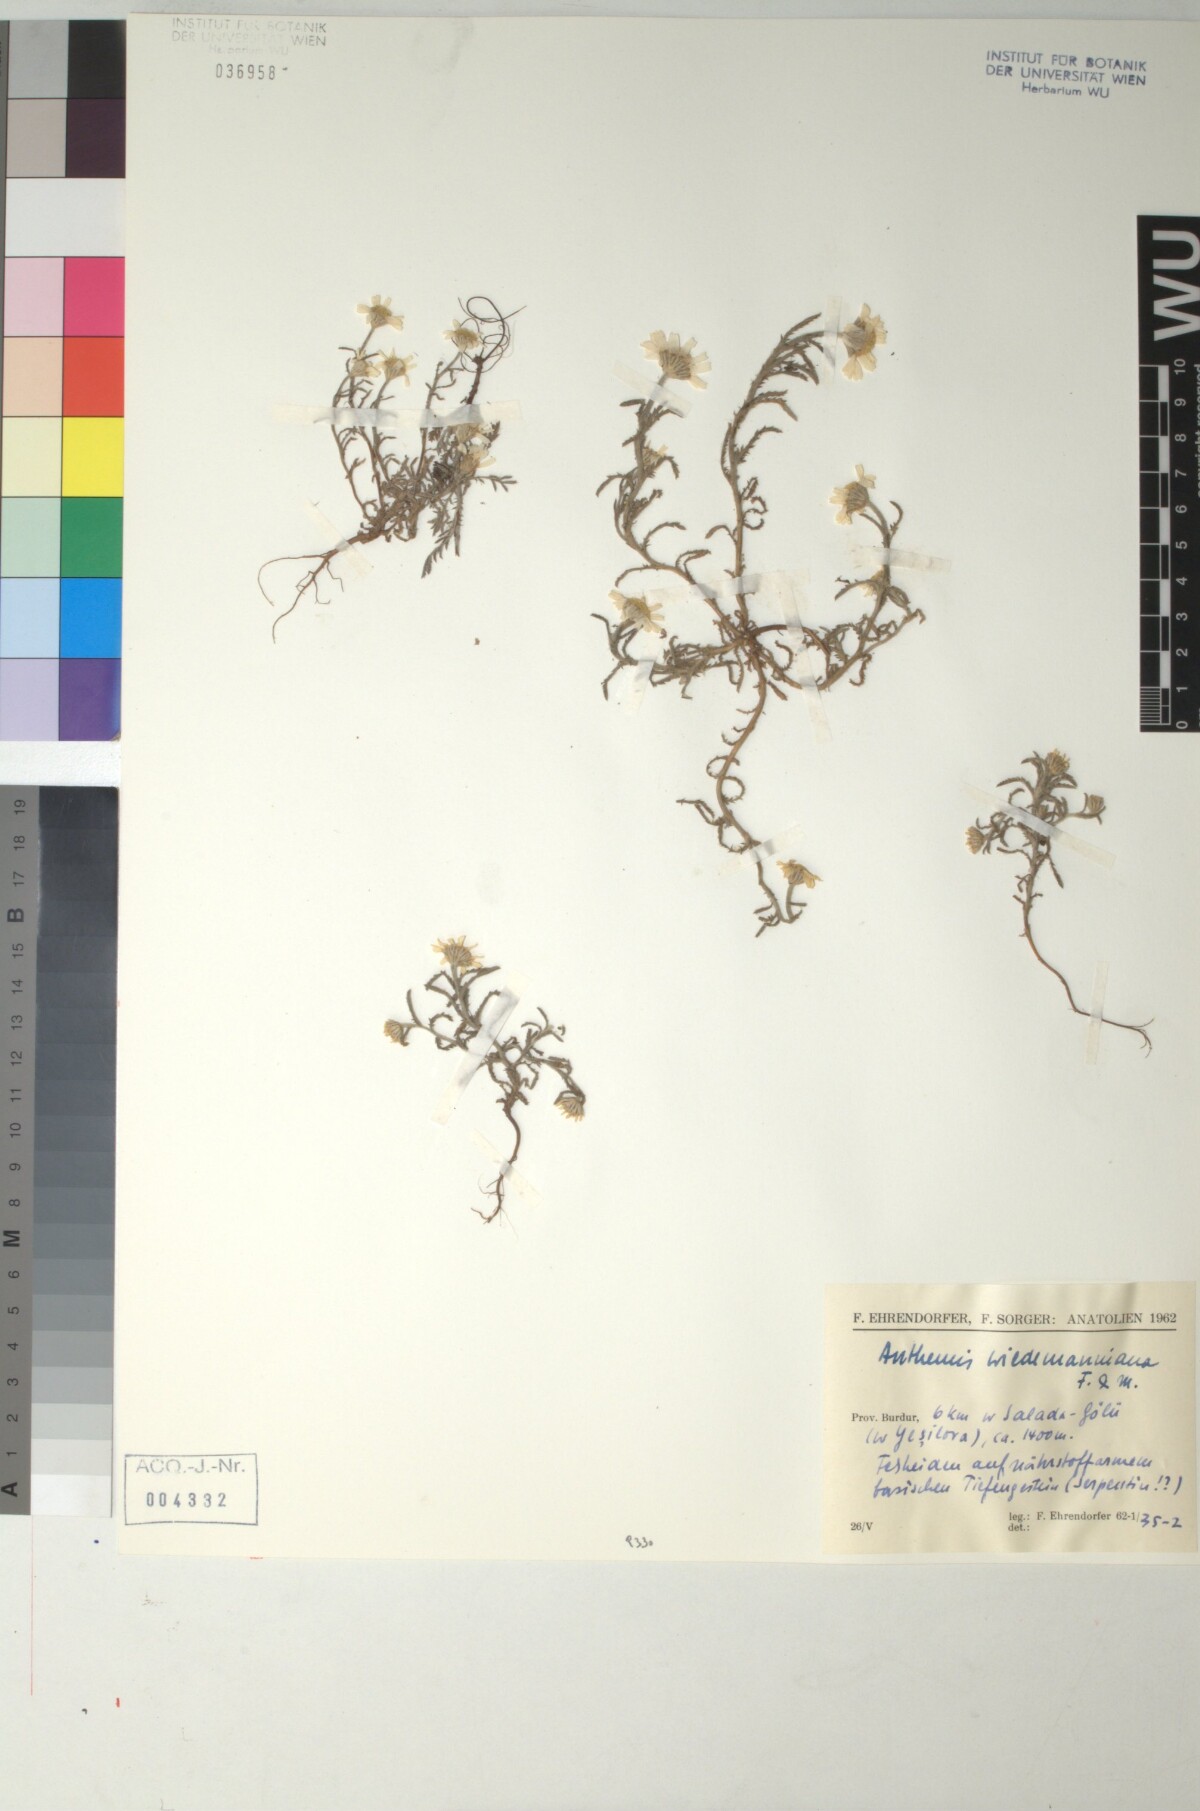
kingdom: Plantae
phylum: Tracheophyta
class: Magnoliopsida
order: Asterales
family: Asteraceae
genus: Cota
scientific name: Cota wiedemanniana
